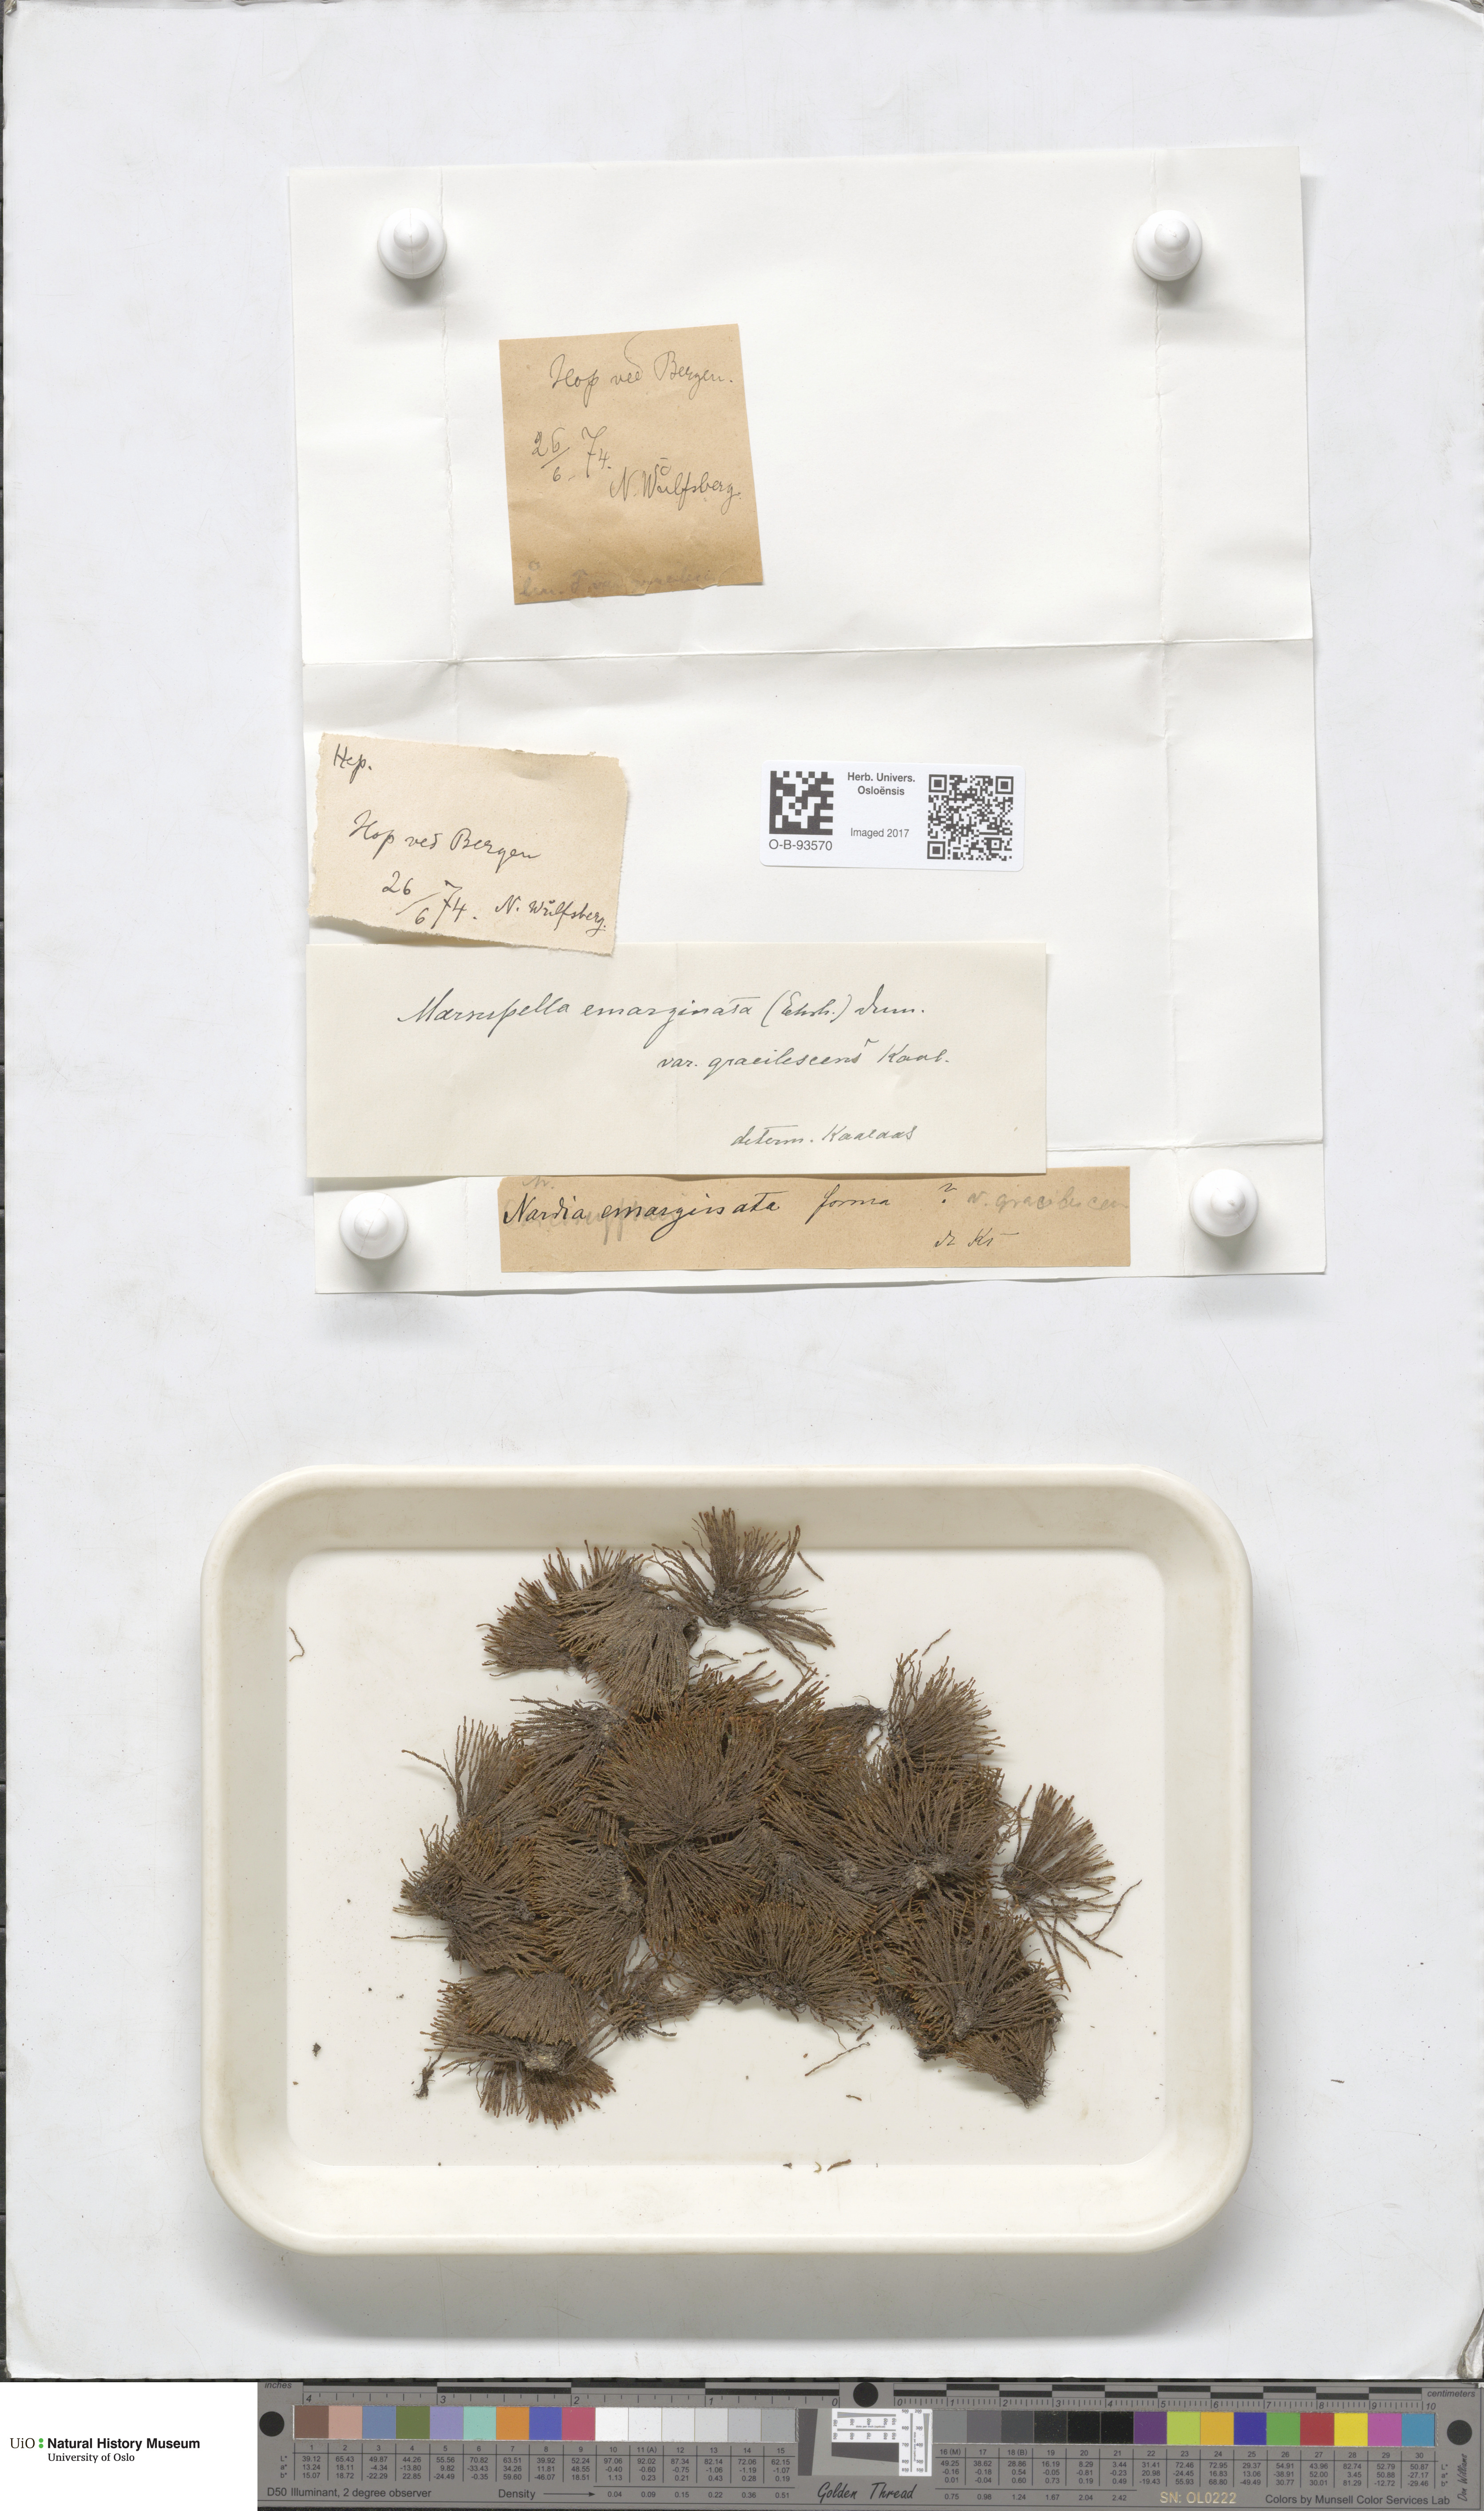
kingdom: Plantae
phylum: Marchantiophyta
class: Jungermanniopsida
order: Jungermanniales
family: Gymnomitriaceae
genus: Marsupella
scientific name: Marsupella emarginata
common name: Notched rustwort
